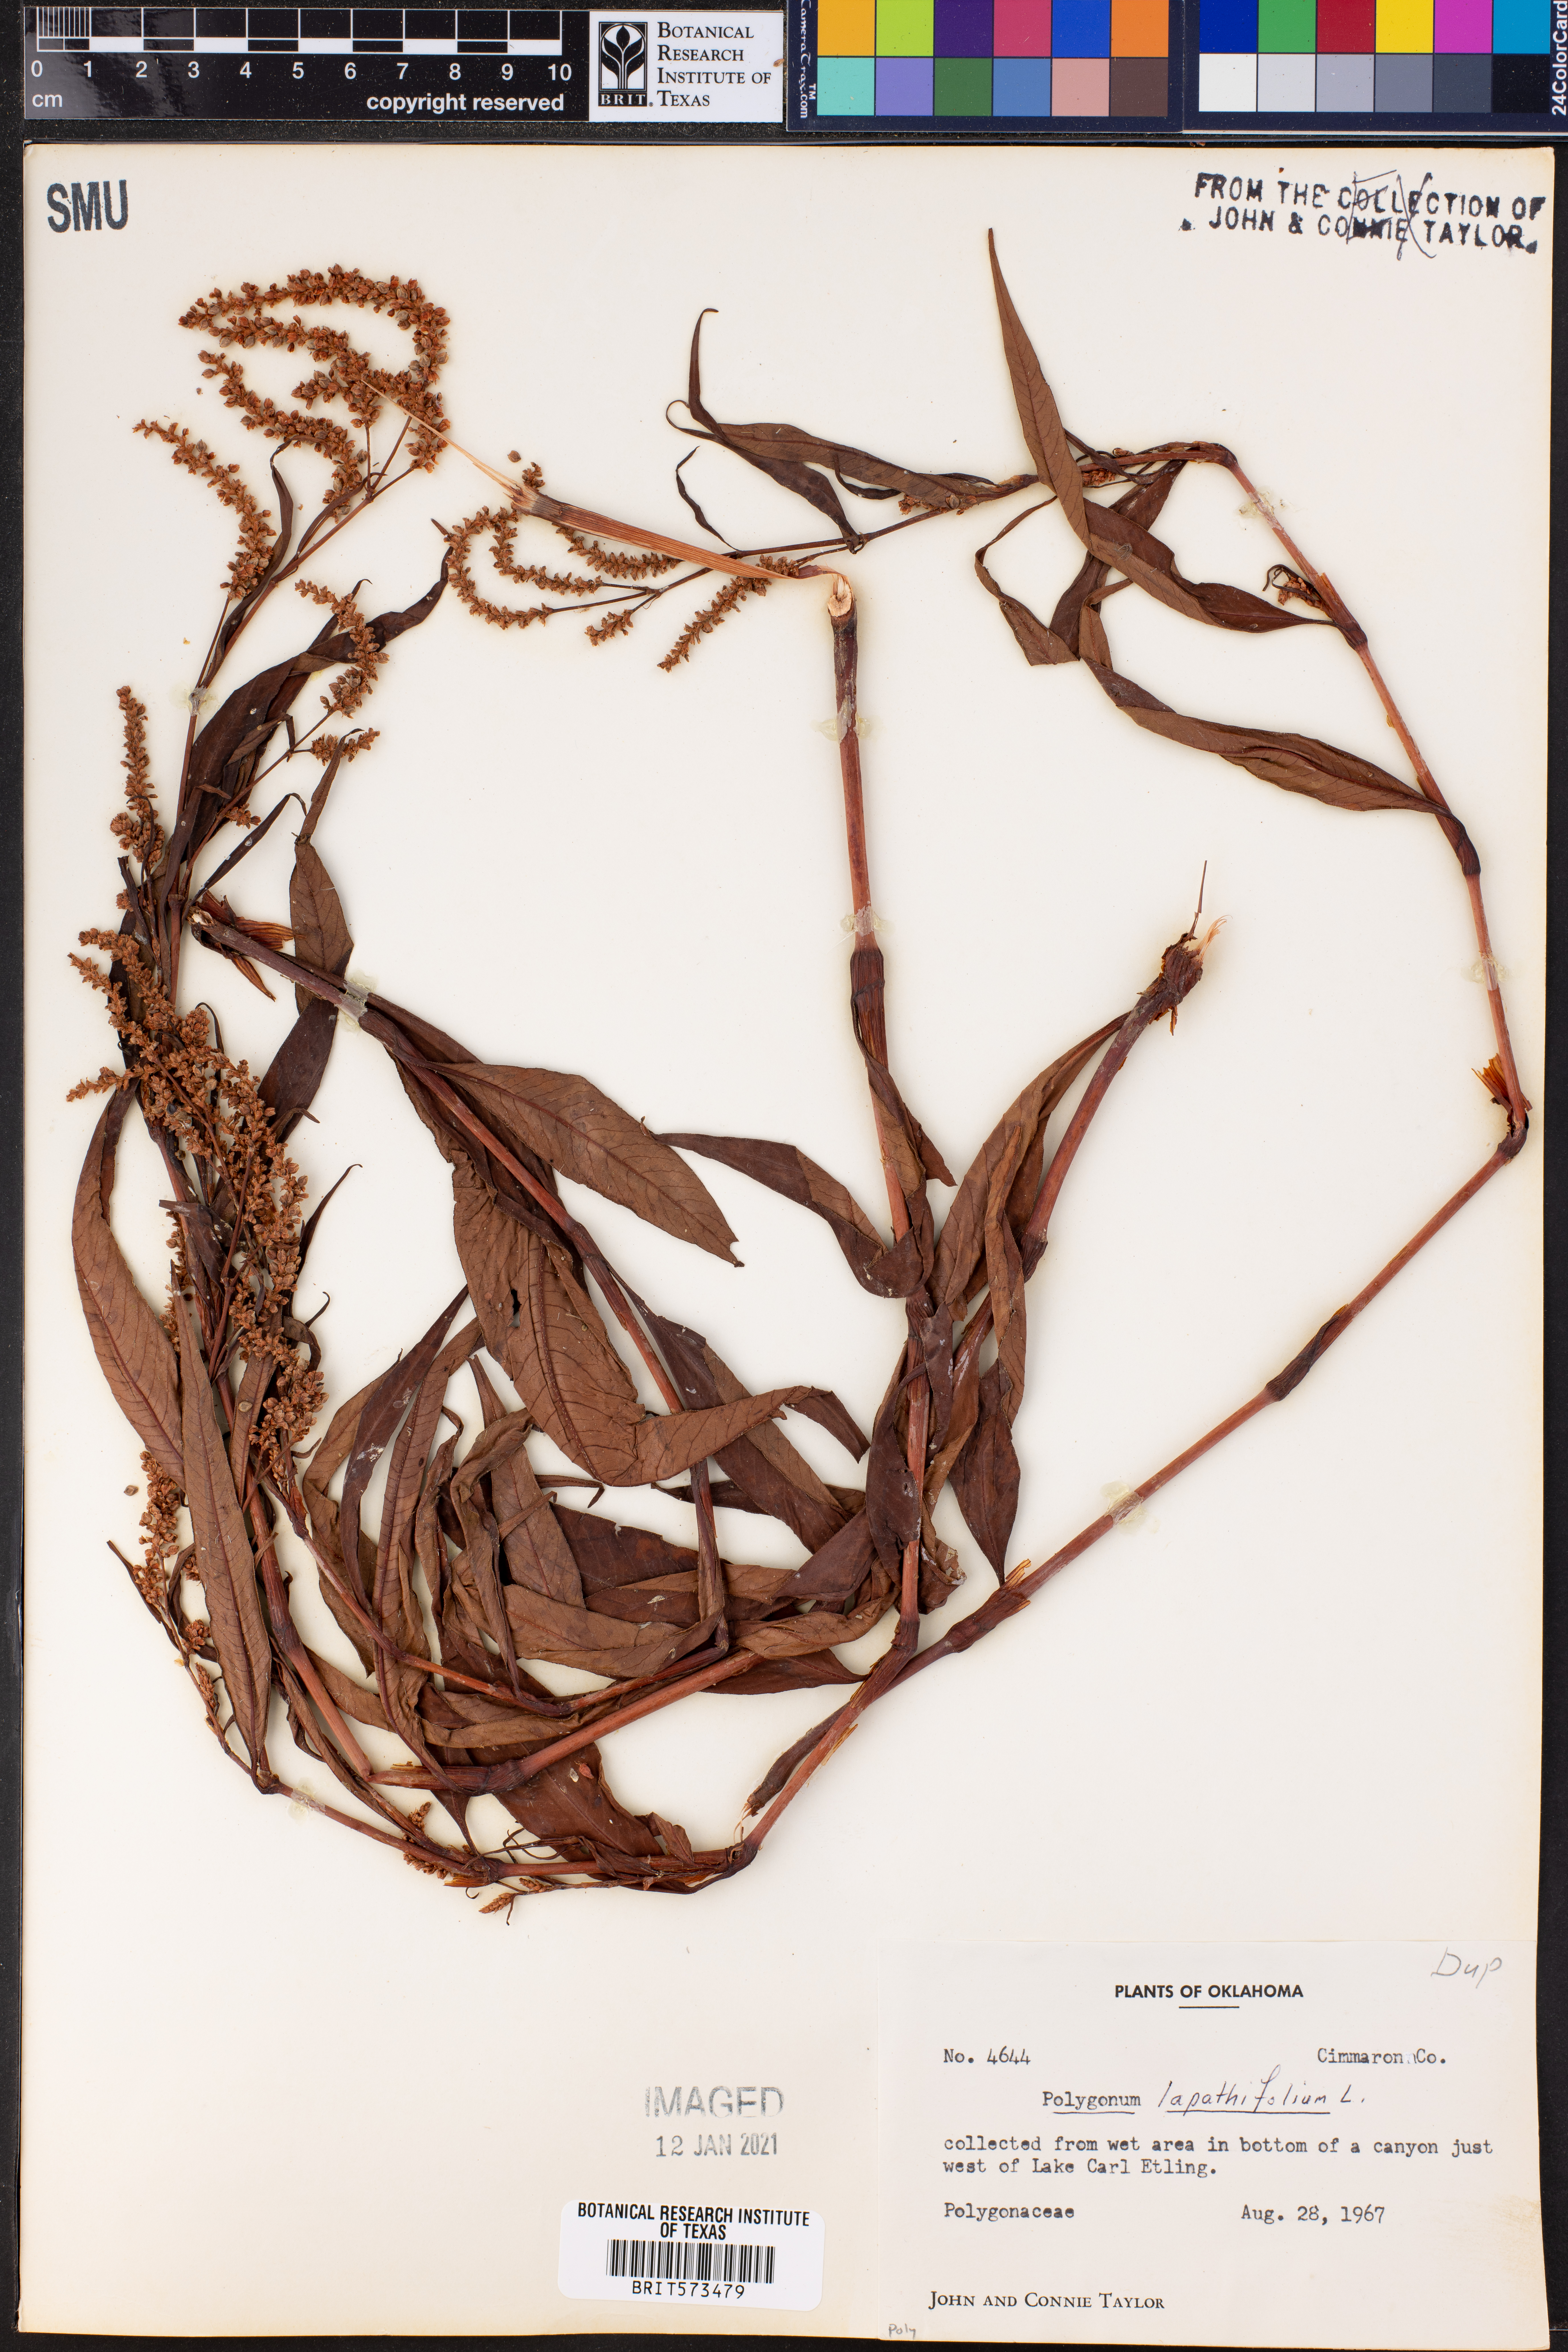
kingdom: Plantae
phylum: Tracheophyta
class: Magnoliopsida
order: Caryophyllales
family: Polygonaceae
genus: Persicaria
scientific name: Persicaria lapathifolia
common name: Curlytop knotweed
